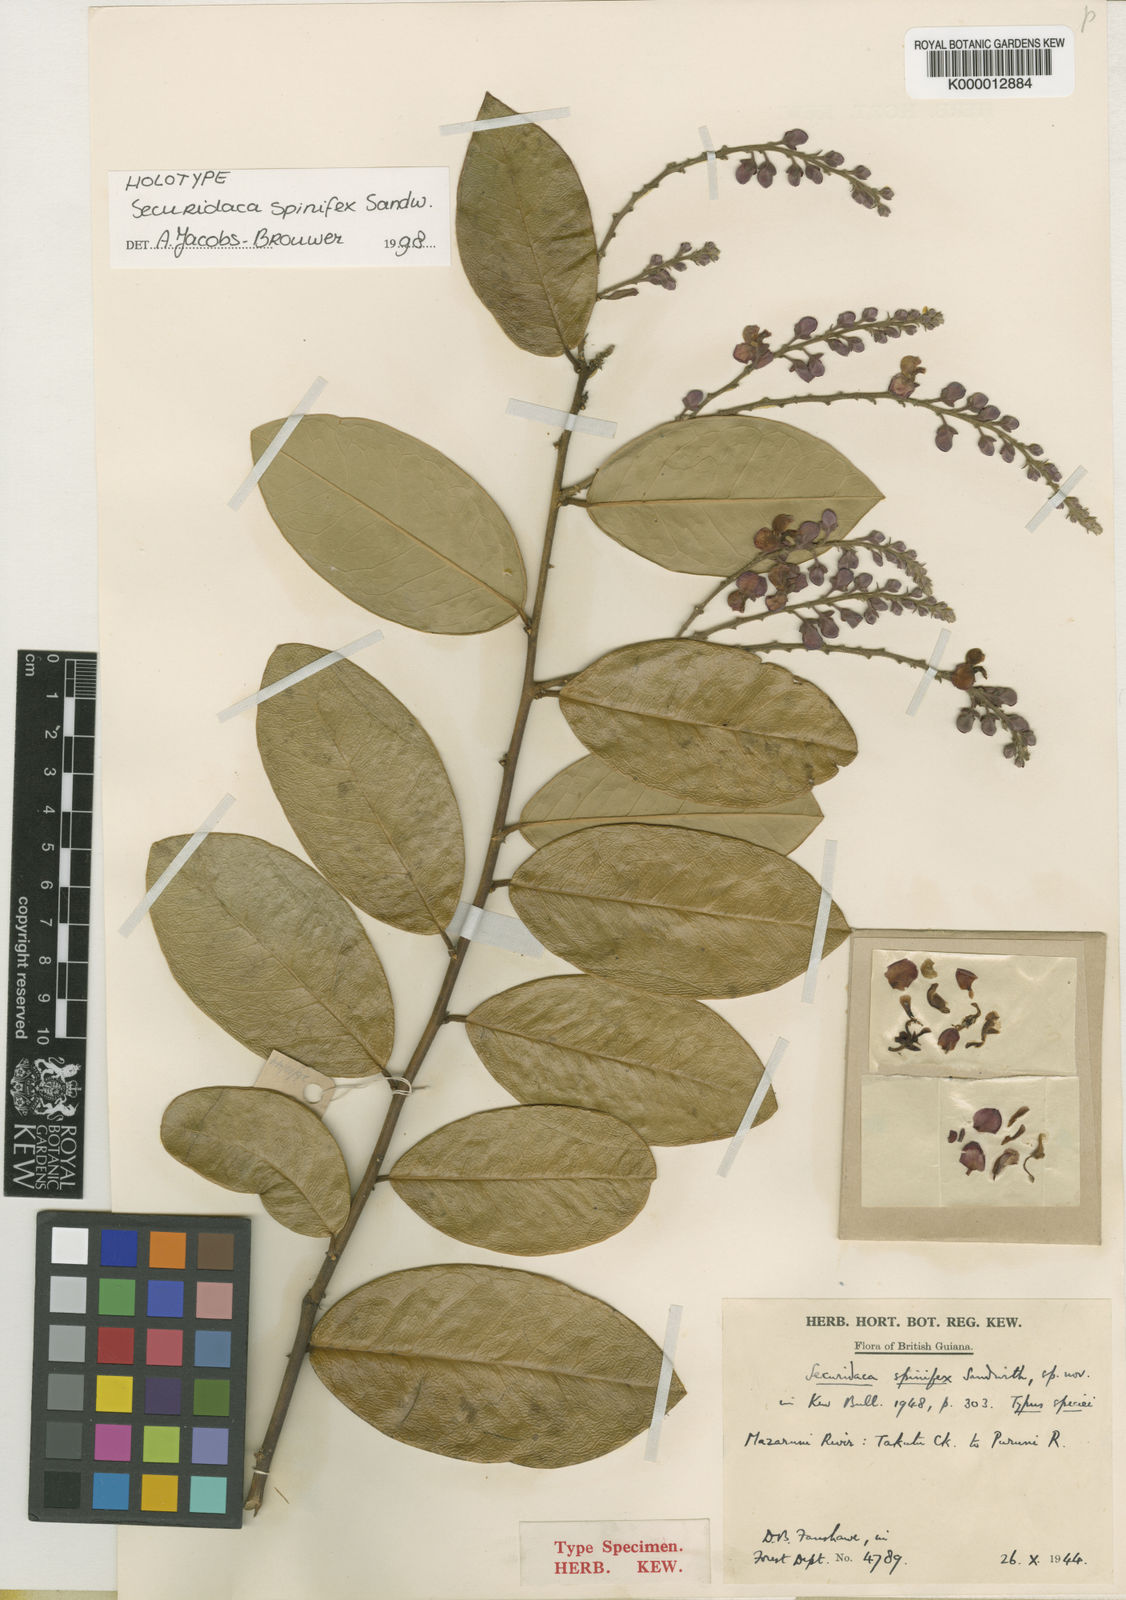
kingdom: Plantae
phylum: Tracheophyta
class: Magnoliopsida
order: Fabales
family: Polygalaceae
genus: Securidaca
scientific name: Securidaca spinifex
